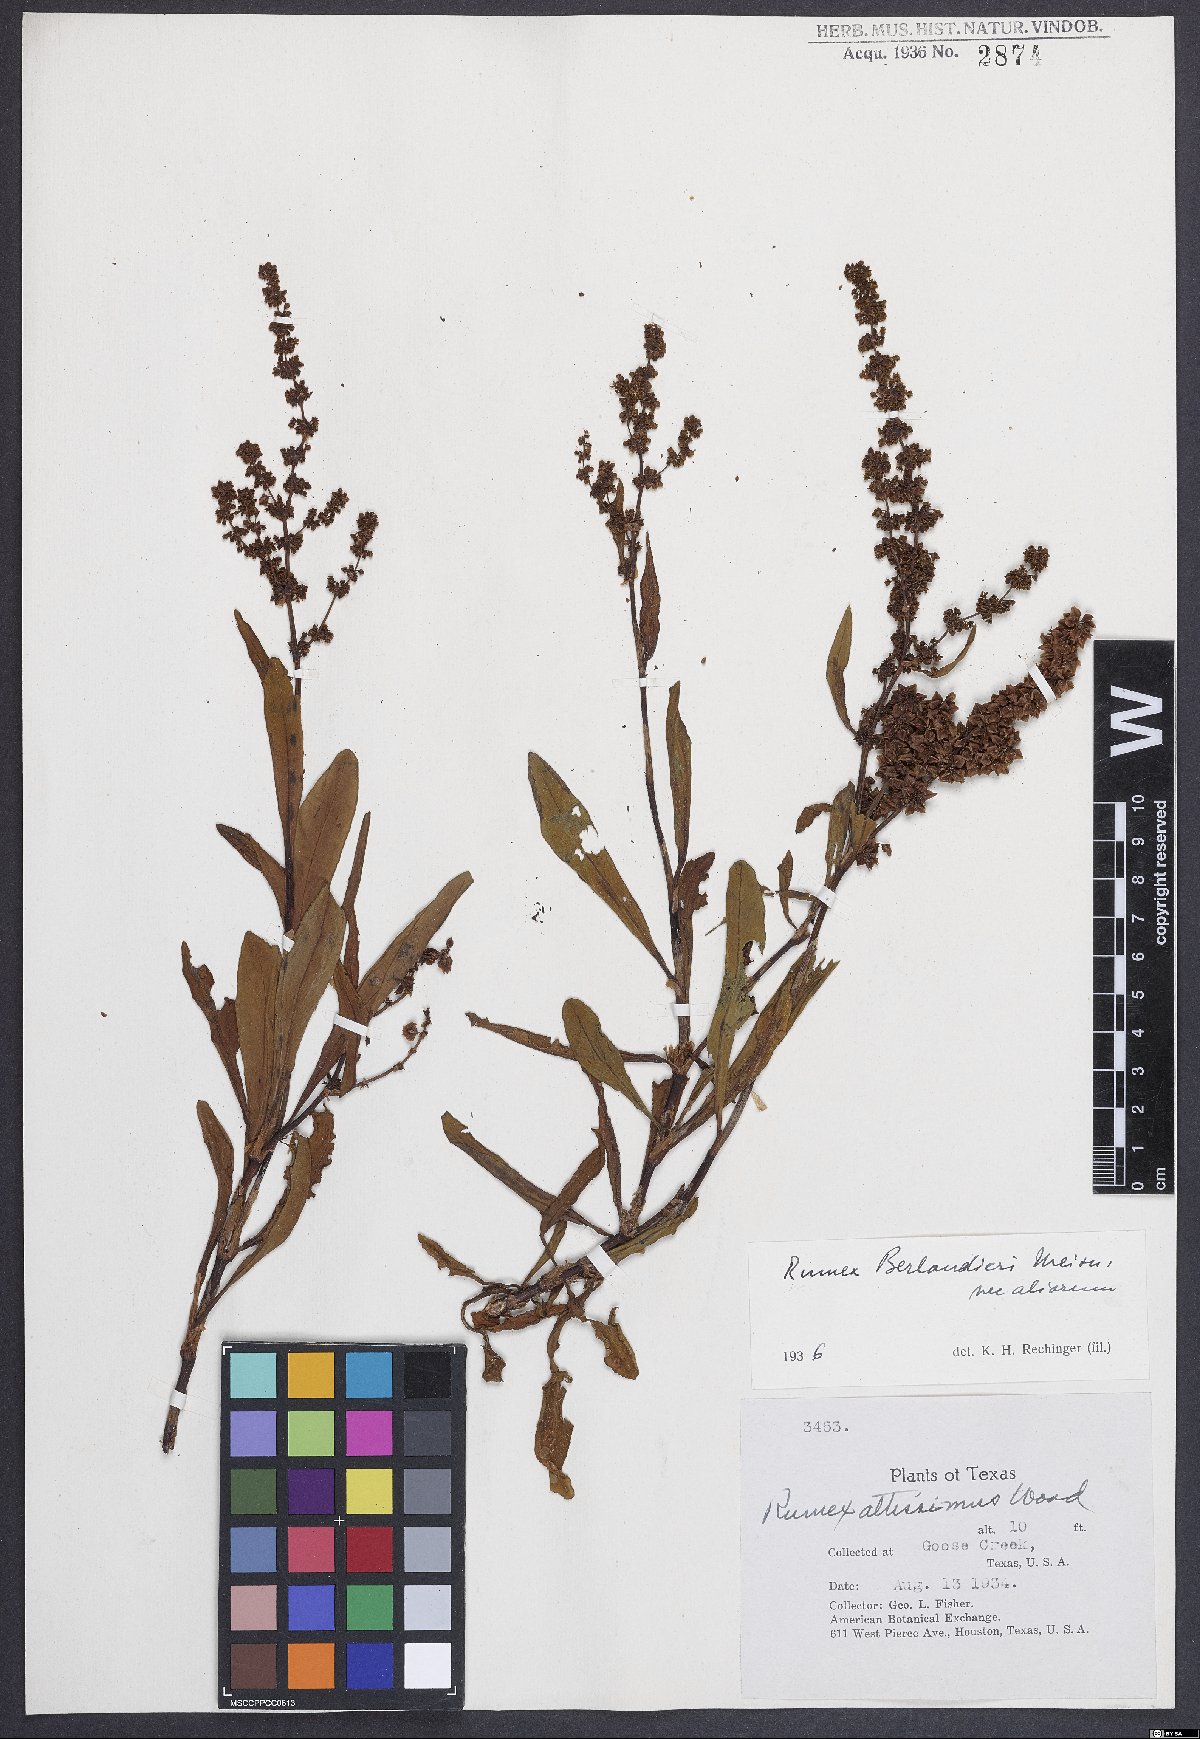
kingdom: Plantae
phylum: Tracheophyta
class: Magnoliopsida
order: Caryophyllales
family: Polygonaceae
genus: Rumex
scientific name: Rumex chrysocarpus
